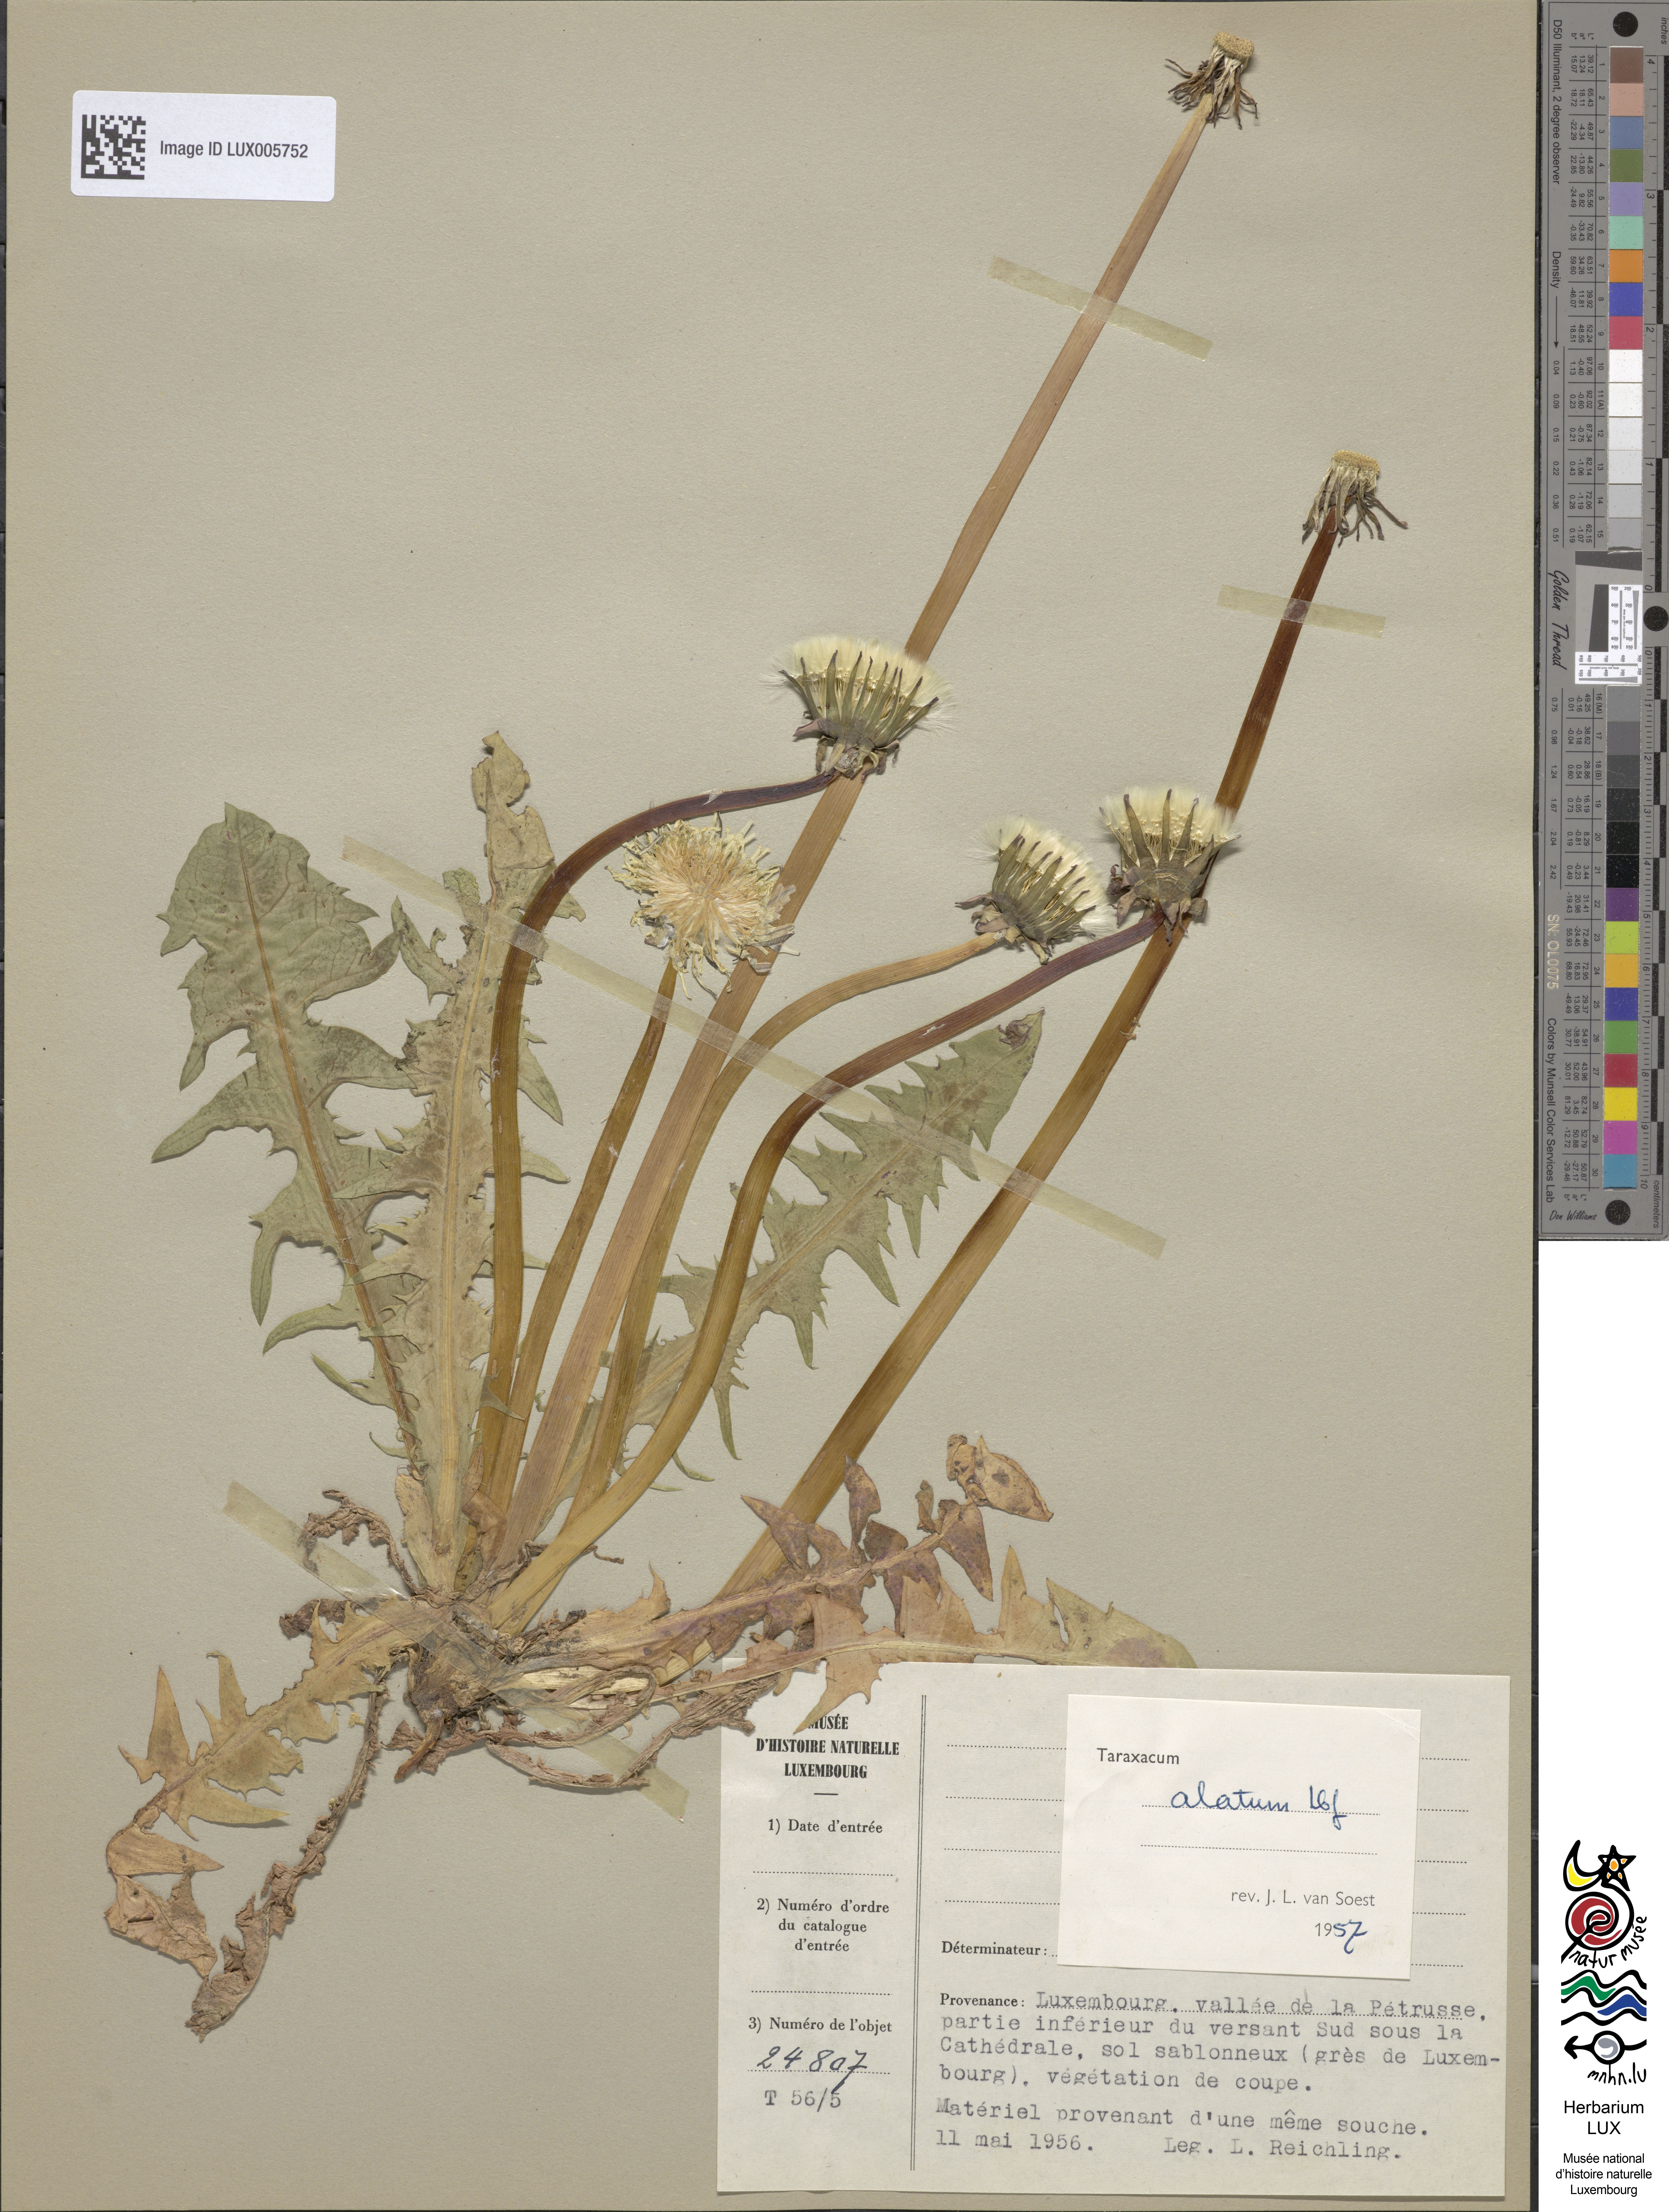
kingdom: Plantae
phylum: Tracheophyta
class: Magnoliopsida
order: Asterales
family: Asteraceae
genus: Taraxacum
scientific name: Taraxacum alatum
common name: Green dandelion
